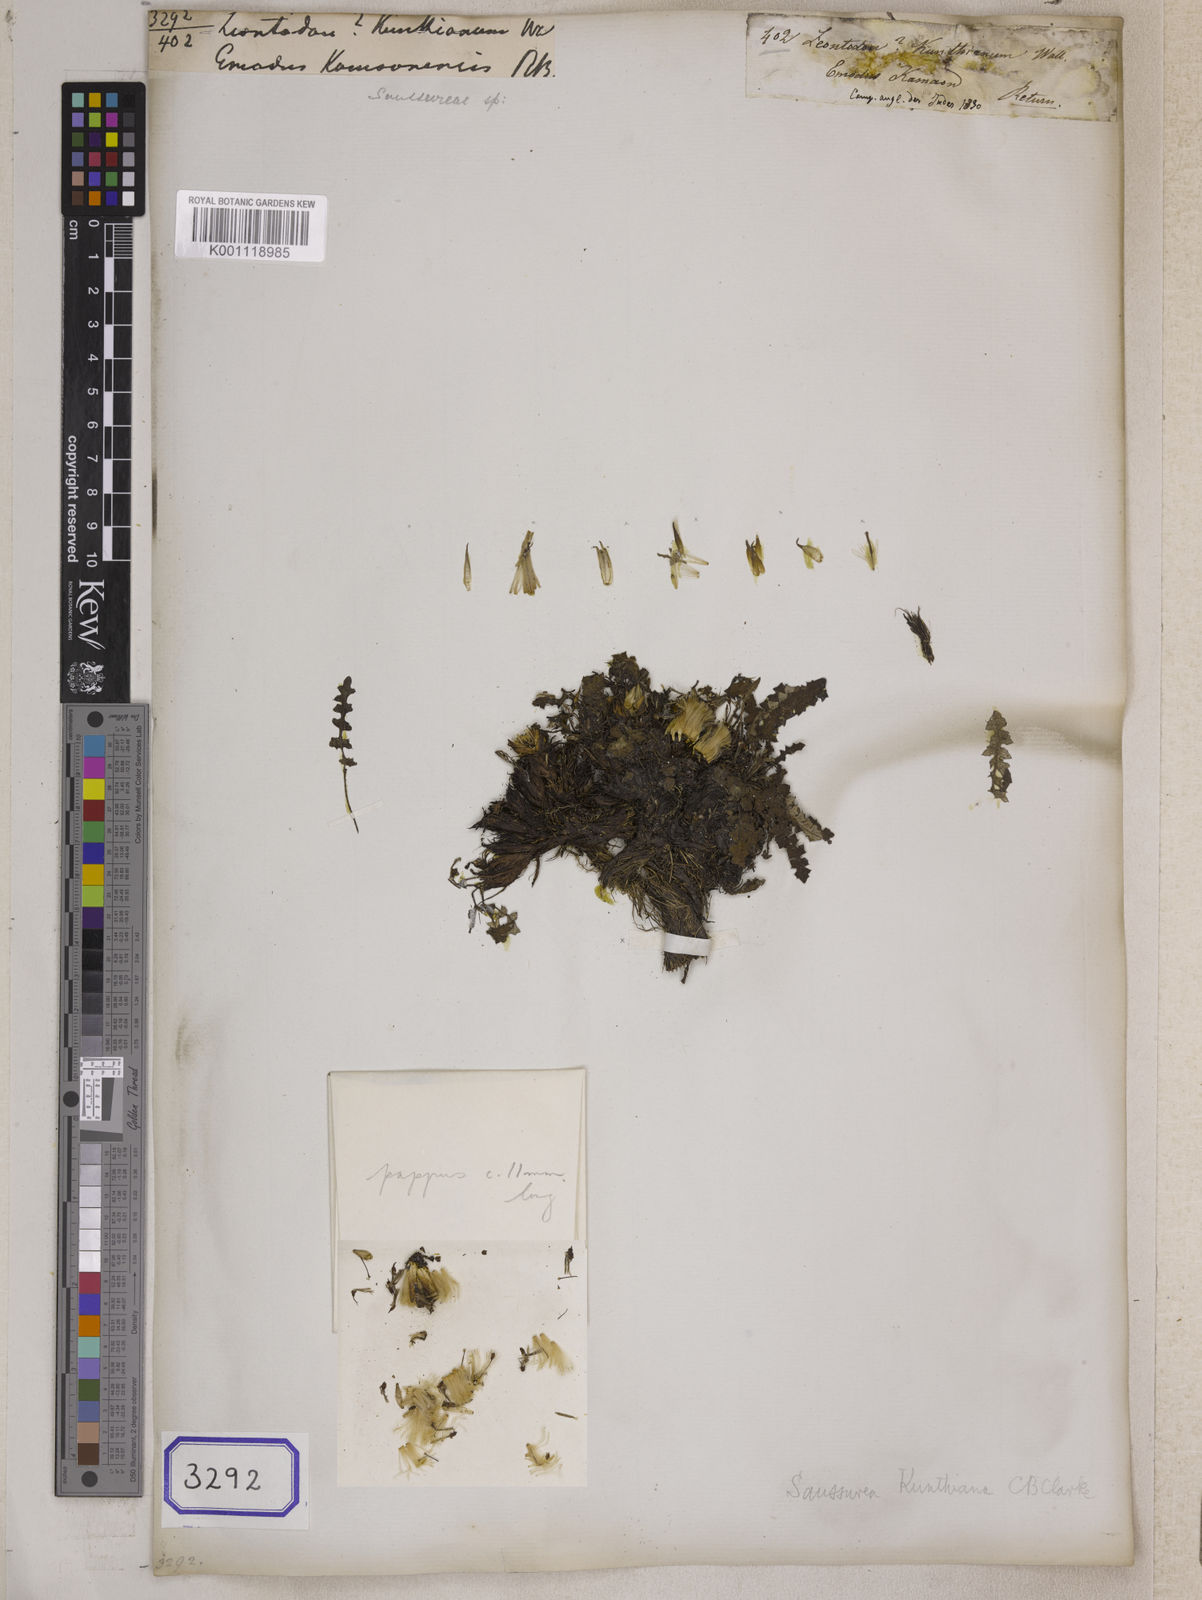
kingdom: Plantae
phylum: Tracheophyta
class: Magnoliopsida
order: Asterales
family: Asteraceae
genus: Saussurea
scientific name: Saussurea leontodontoides
